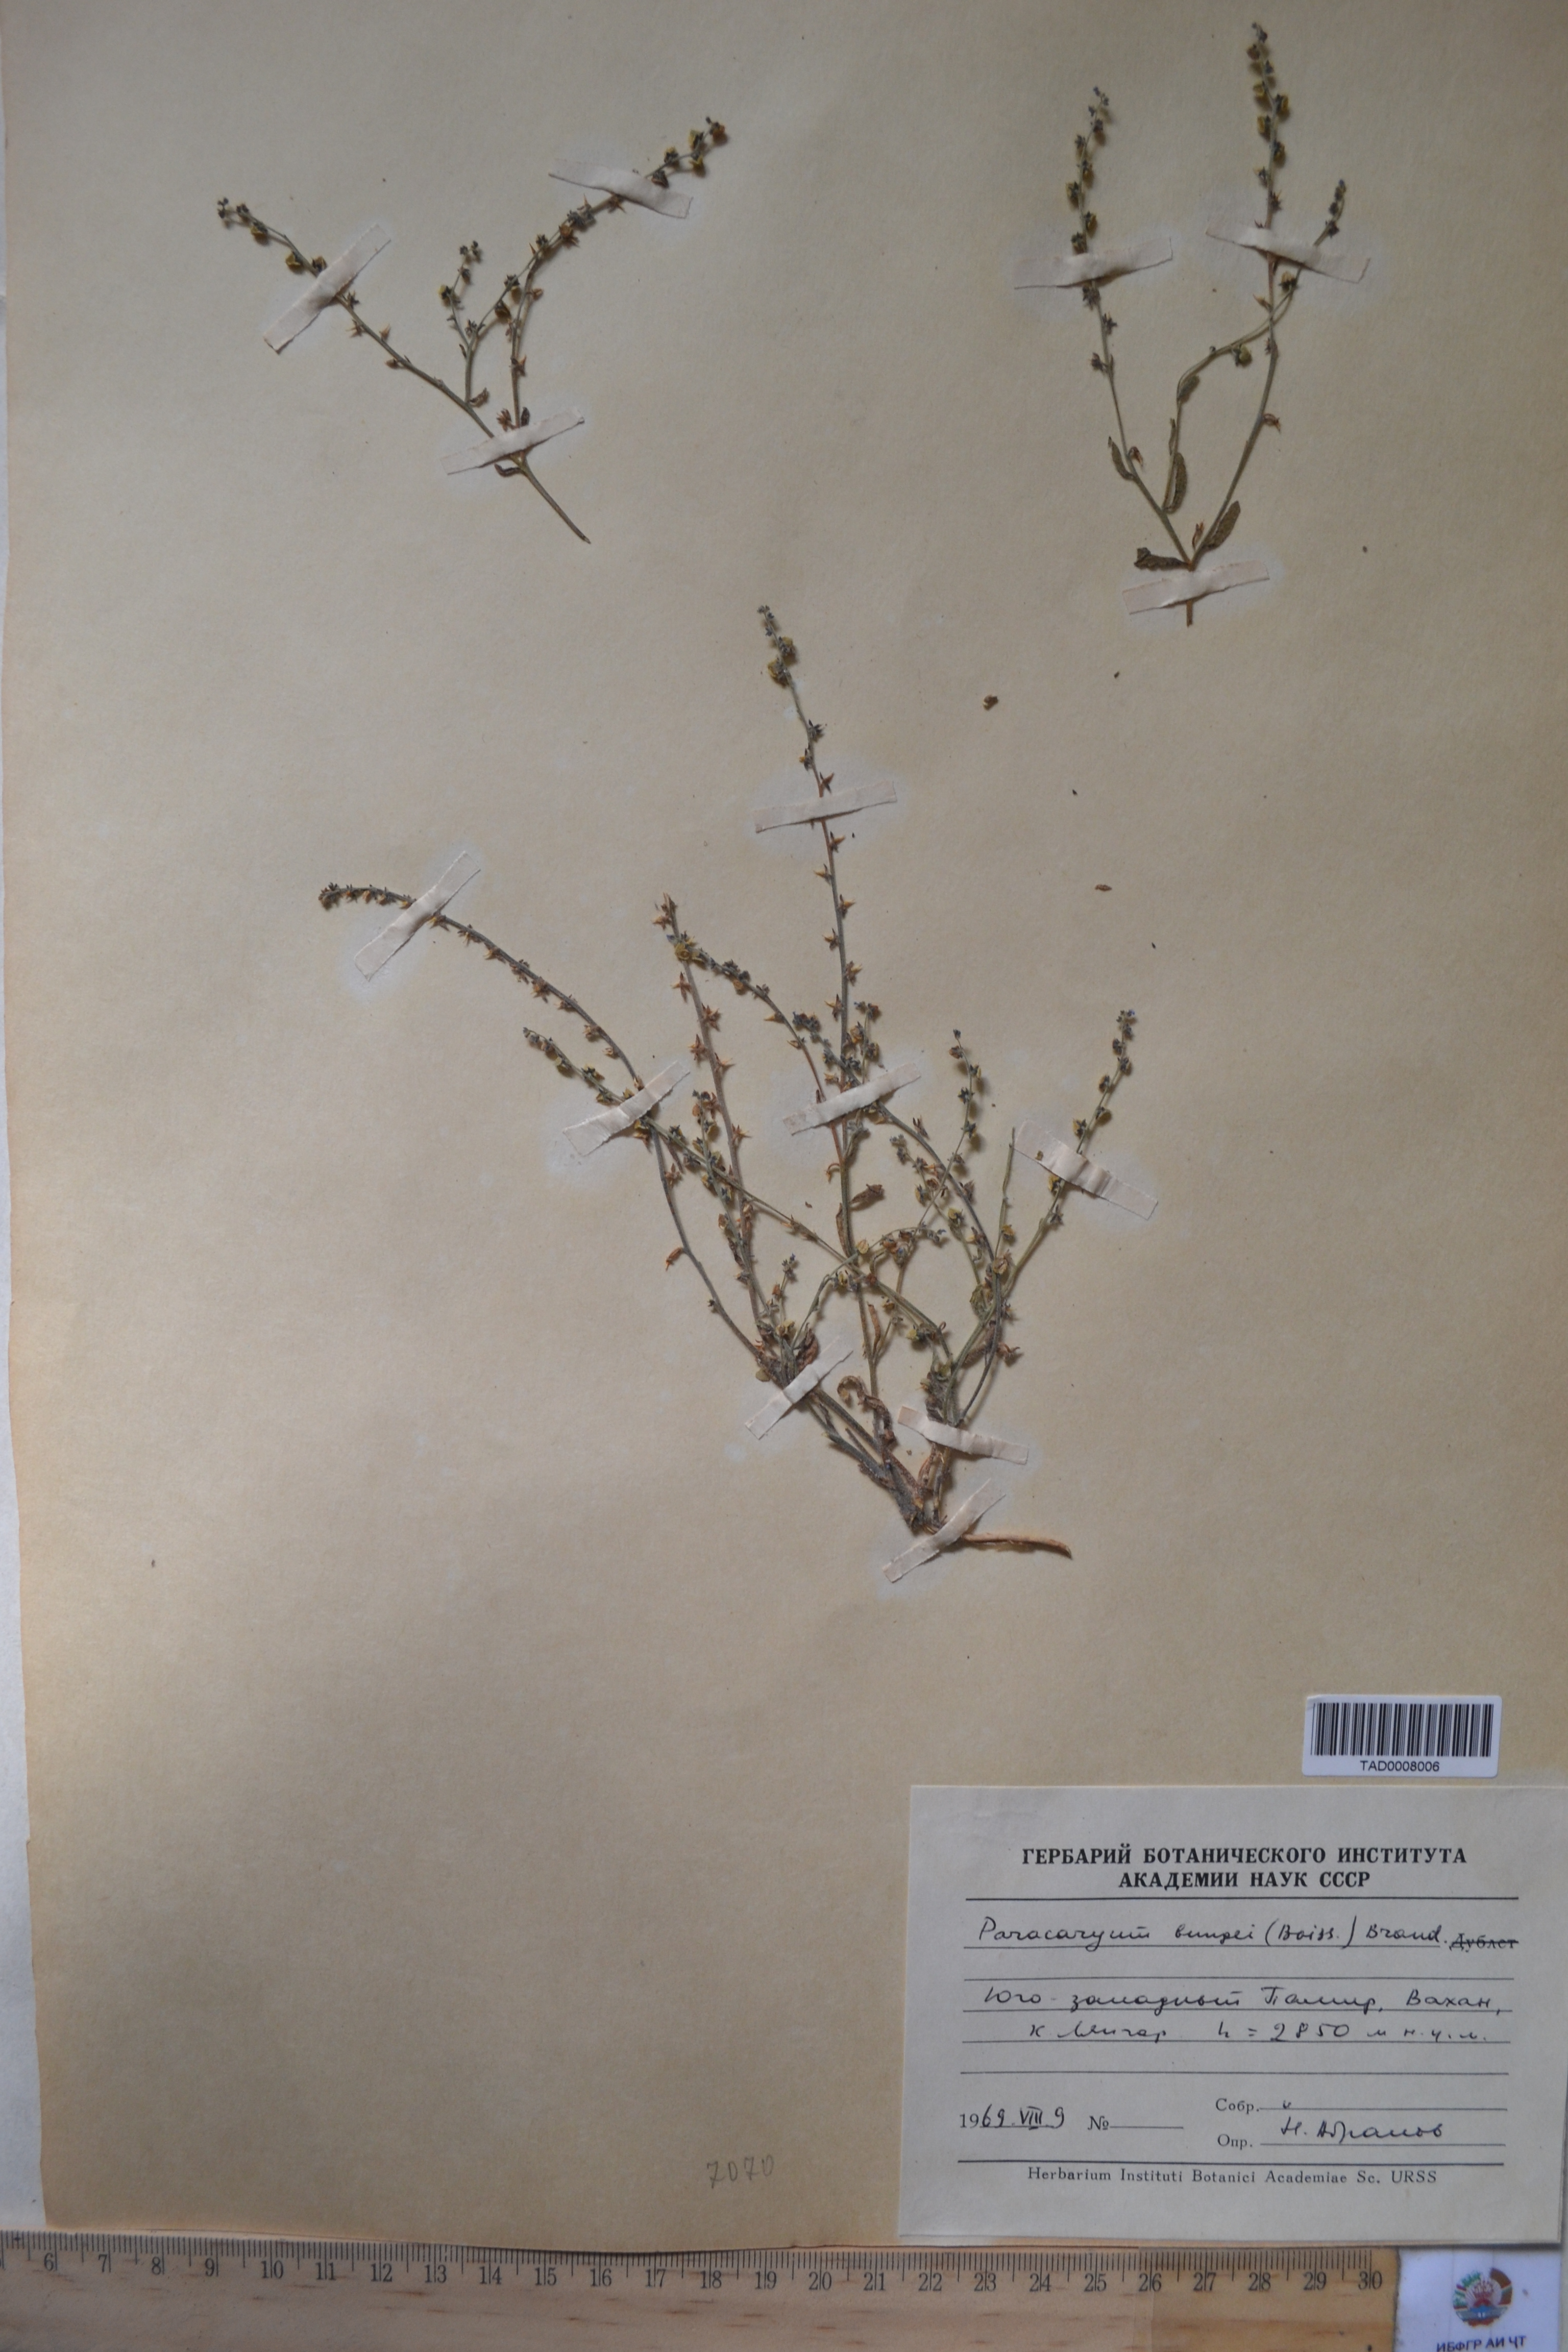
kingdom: Plantae
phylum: Tracheophyta
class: Magnoliopsida
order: Boraginales
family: Boraginaceae
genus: Paracaryum
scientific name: Paracaryum
